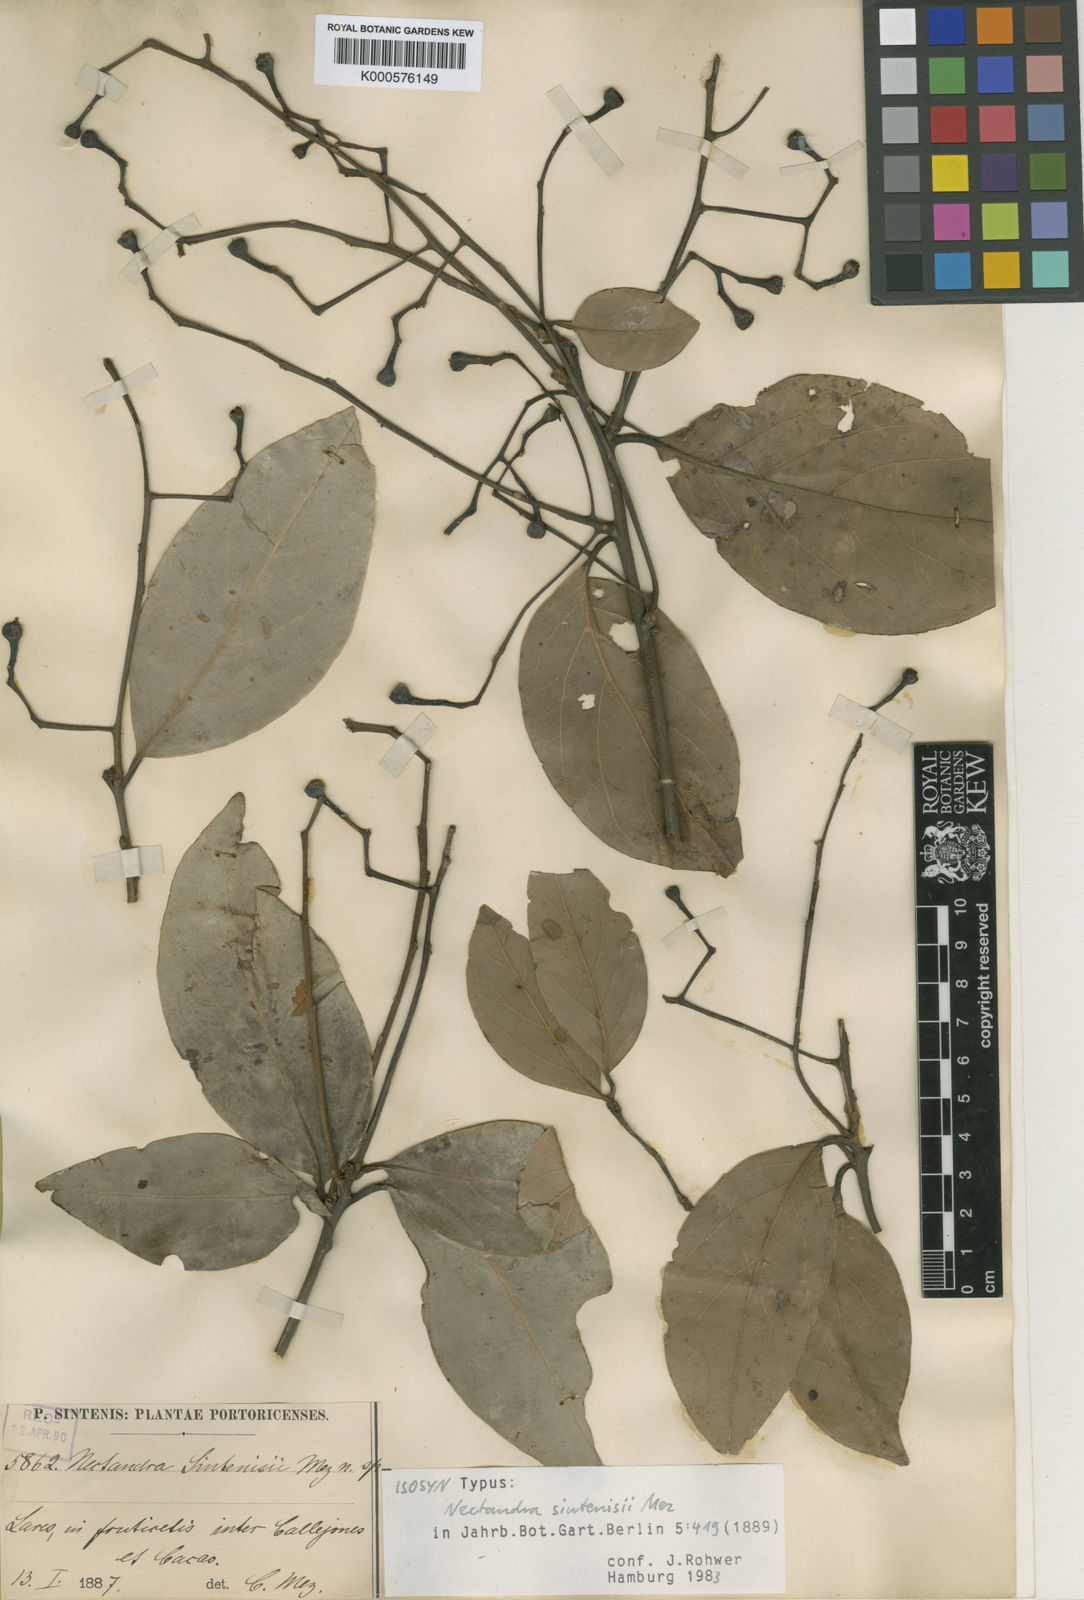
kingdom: Plantae
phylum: Tracheophyta
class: Magnoliopsida
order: Laurales
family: Lauraceae
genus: Nectandra
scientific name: Nectandra turbacensis
